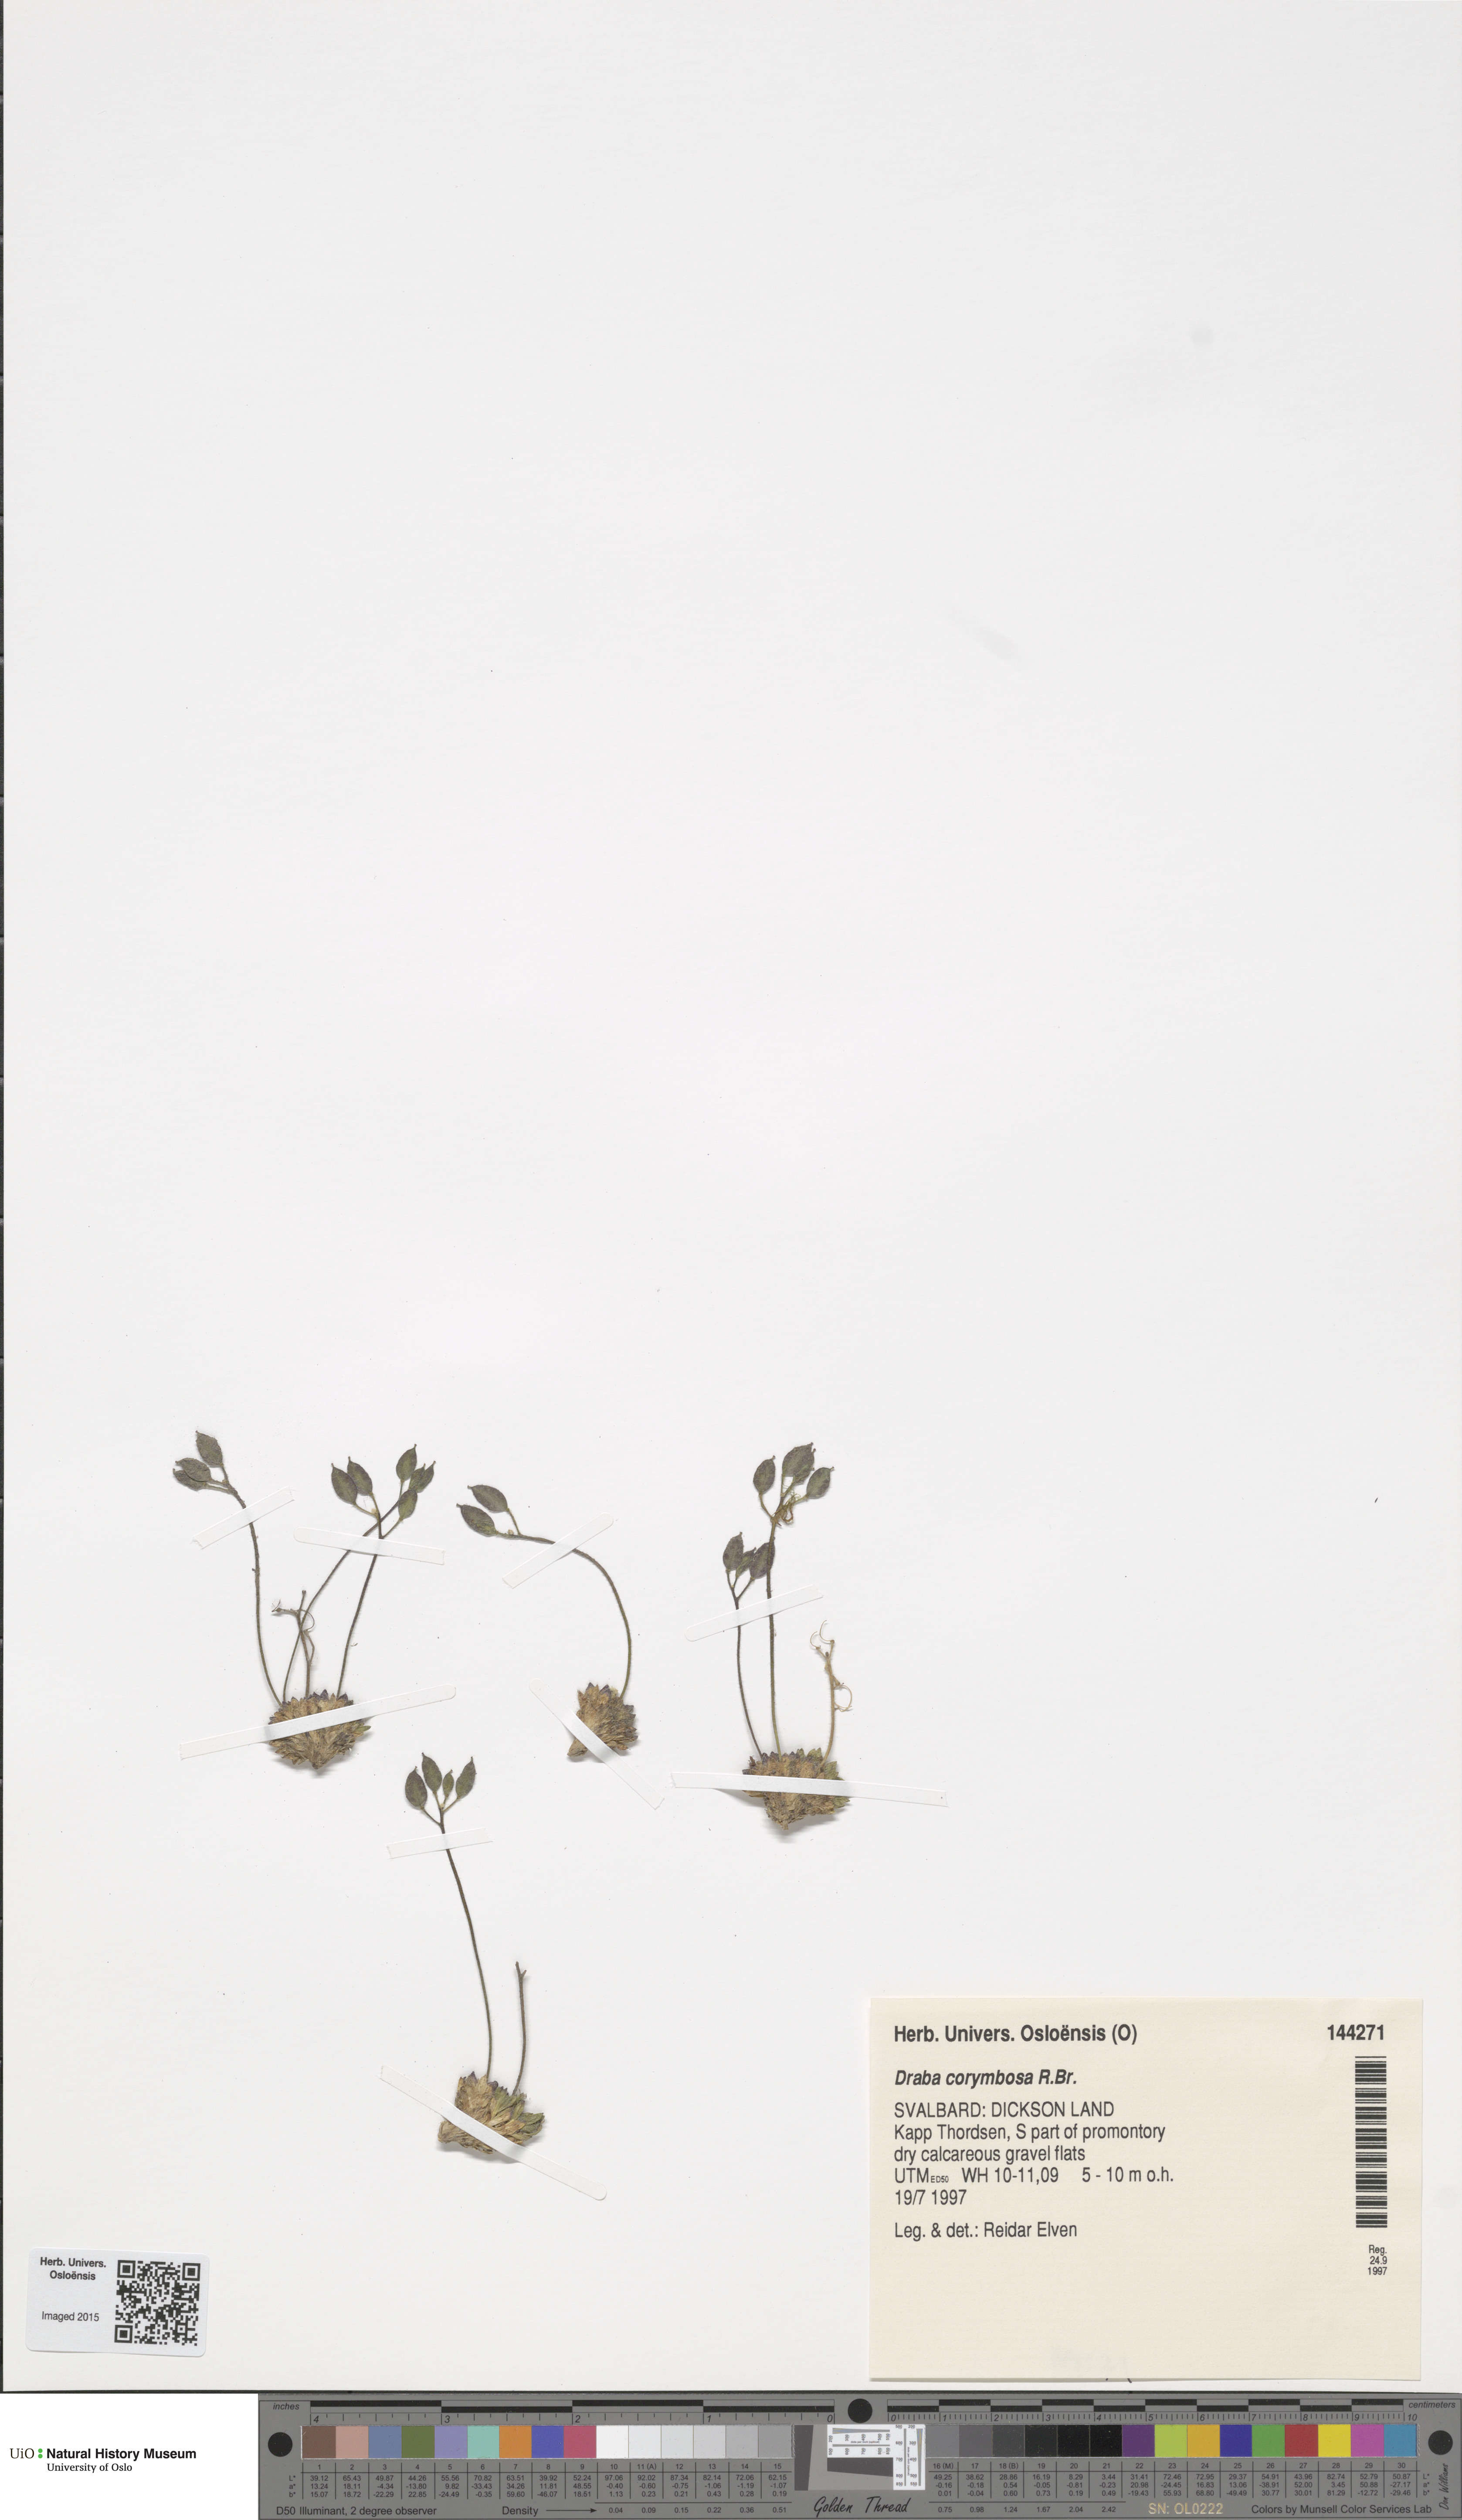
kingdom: Plantae
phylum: Tracheophyta
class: Magnoliopsida
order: Brassicales
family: Brassicaceae
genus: Draba
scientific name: Draba corymbosa
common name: Cushion whitlow-grass
